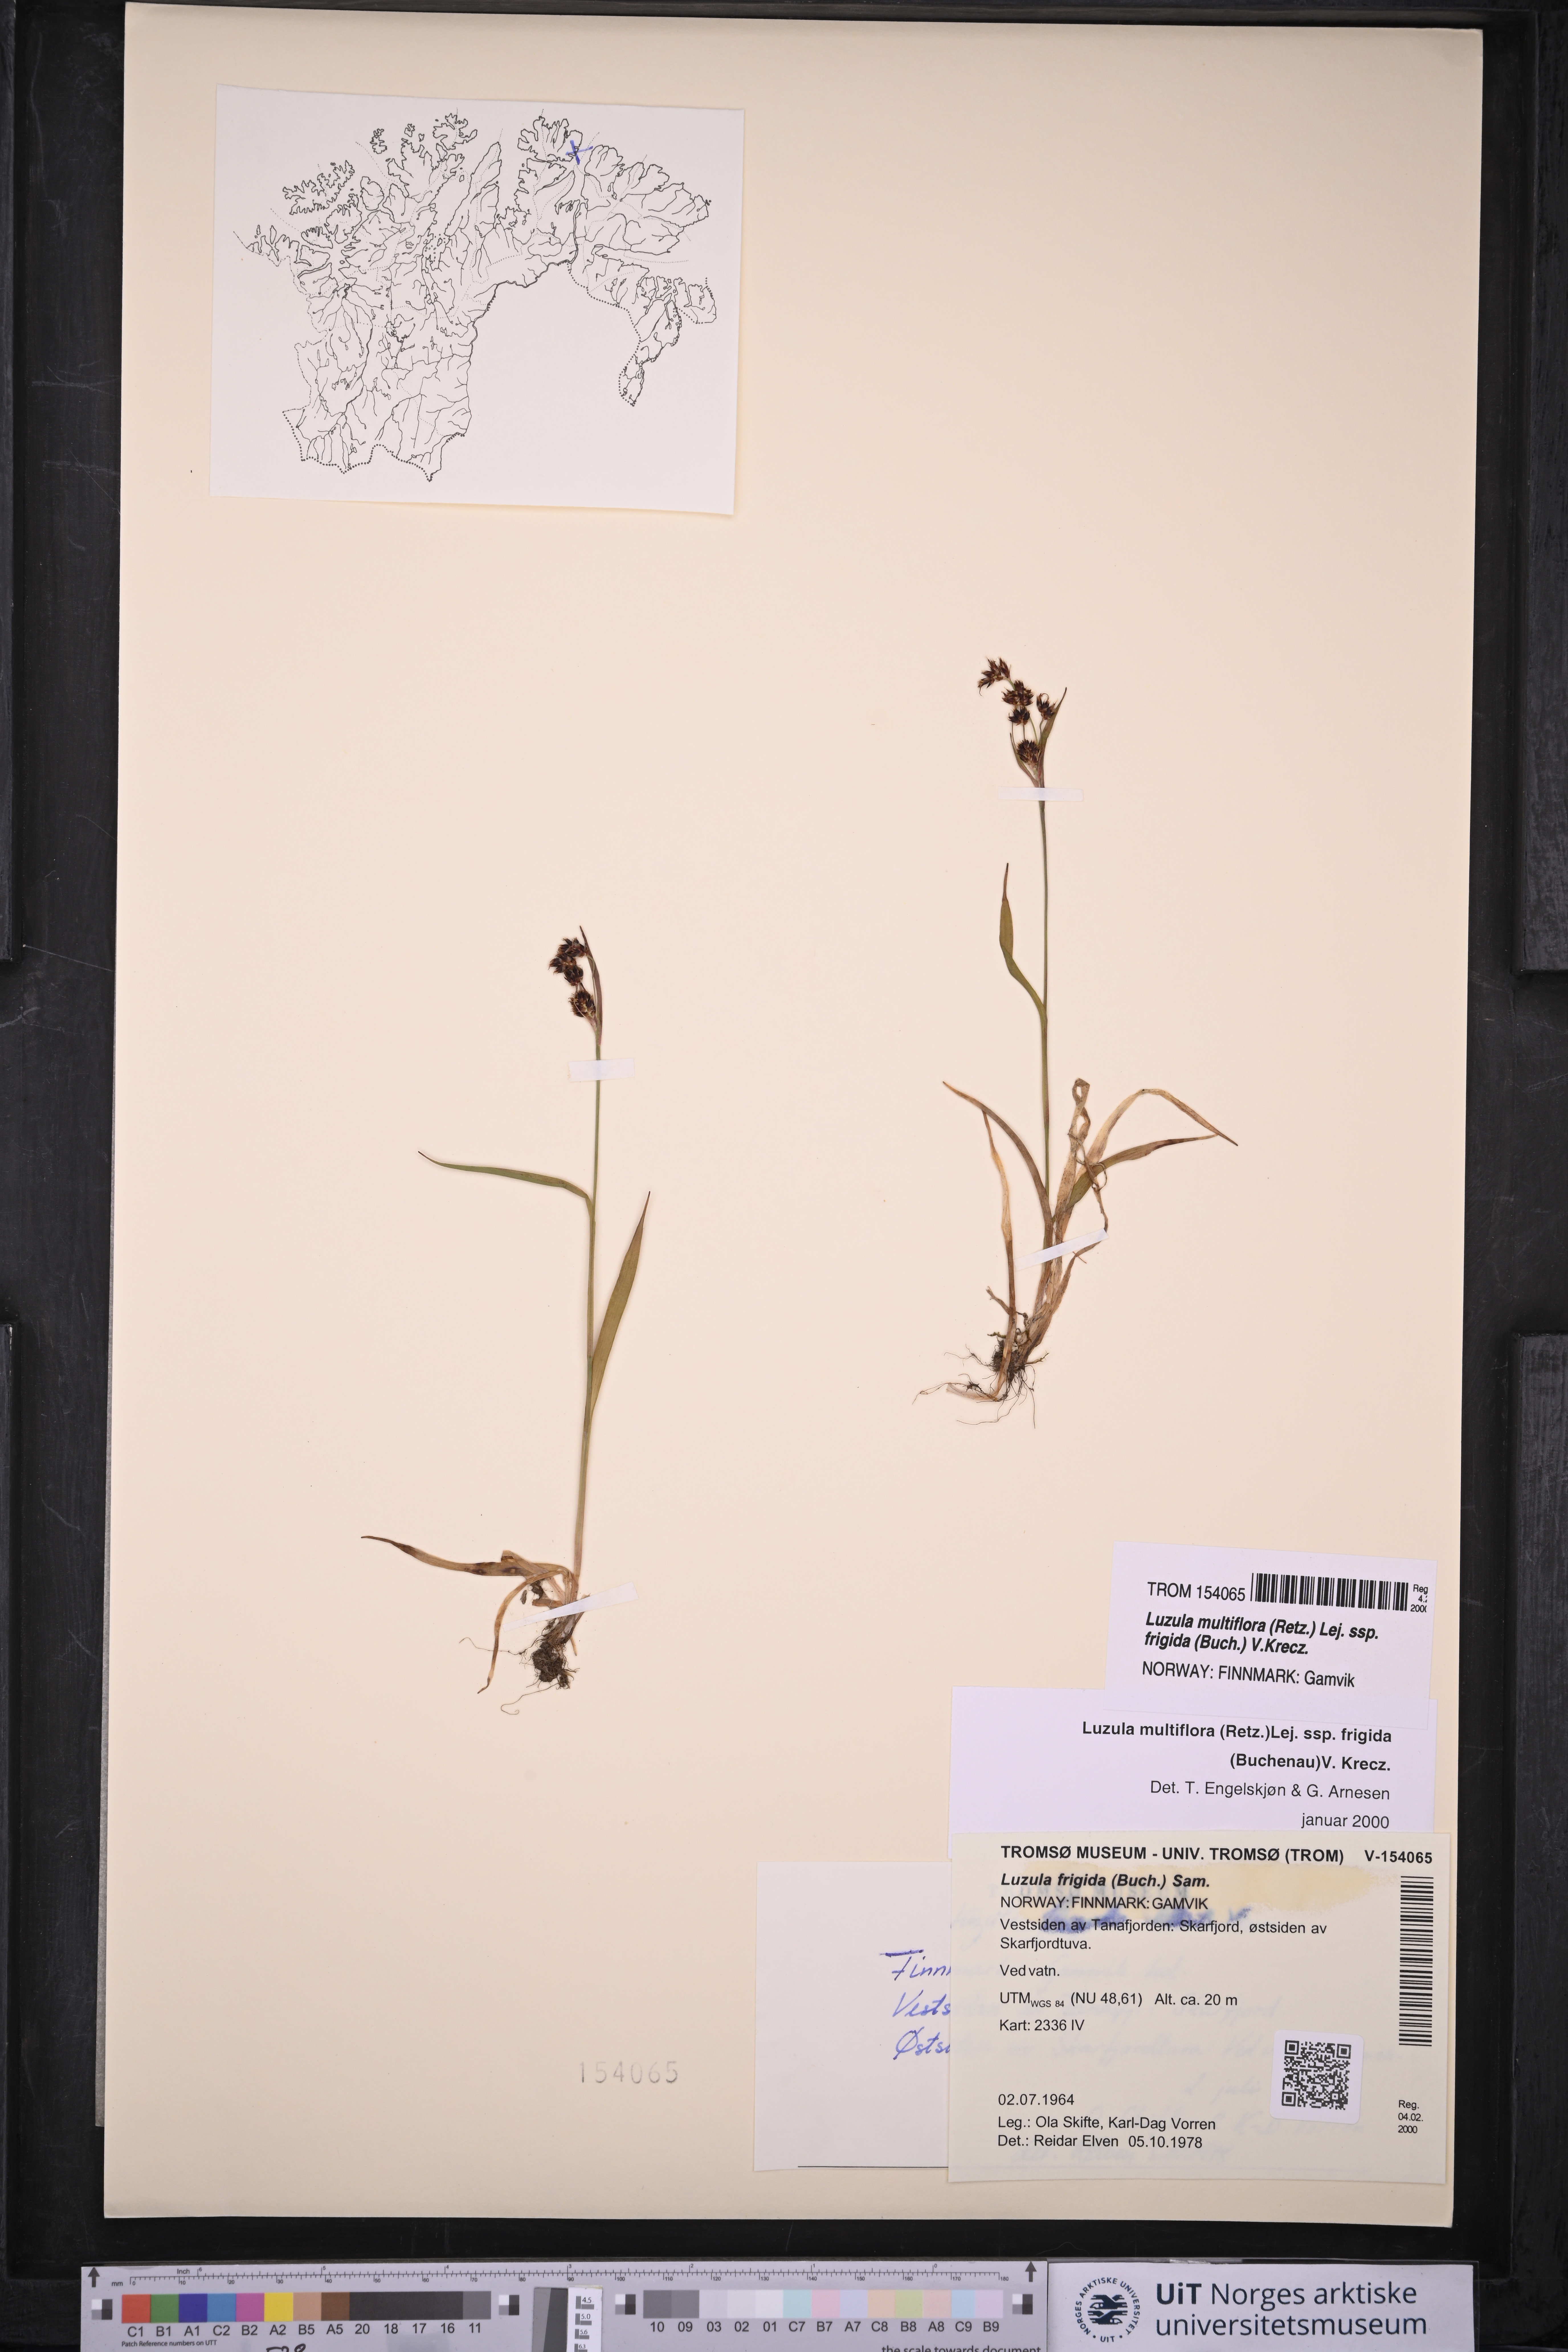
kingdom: Plantae
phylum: Tracheophyta
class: Liliopsida
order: Poales
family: Juncaceae
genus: Luzula
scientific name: Luzula multiflora
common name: Heath wood-rush
